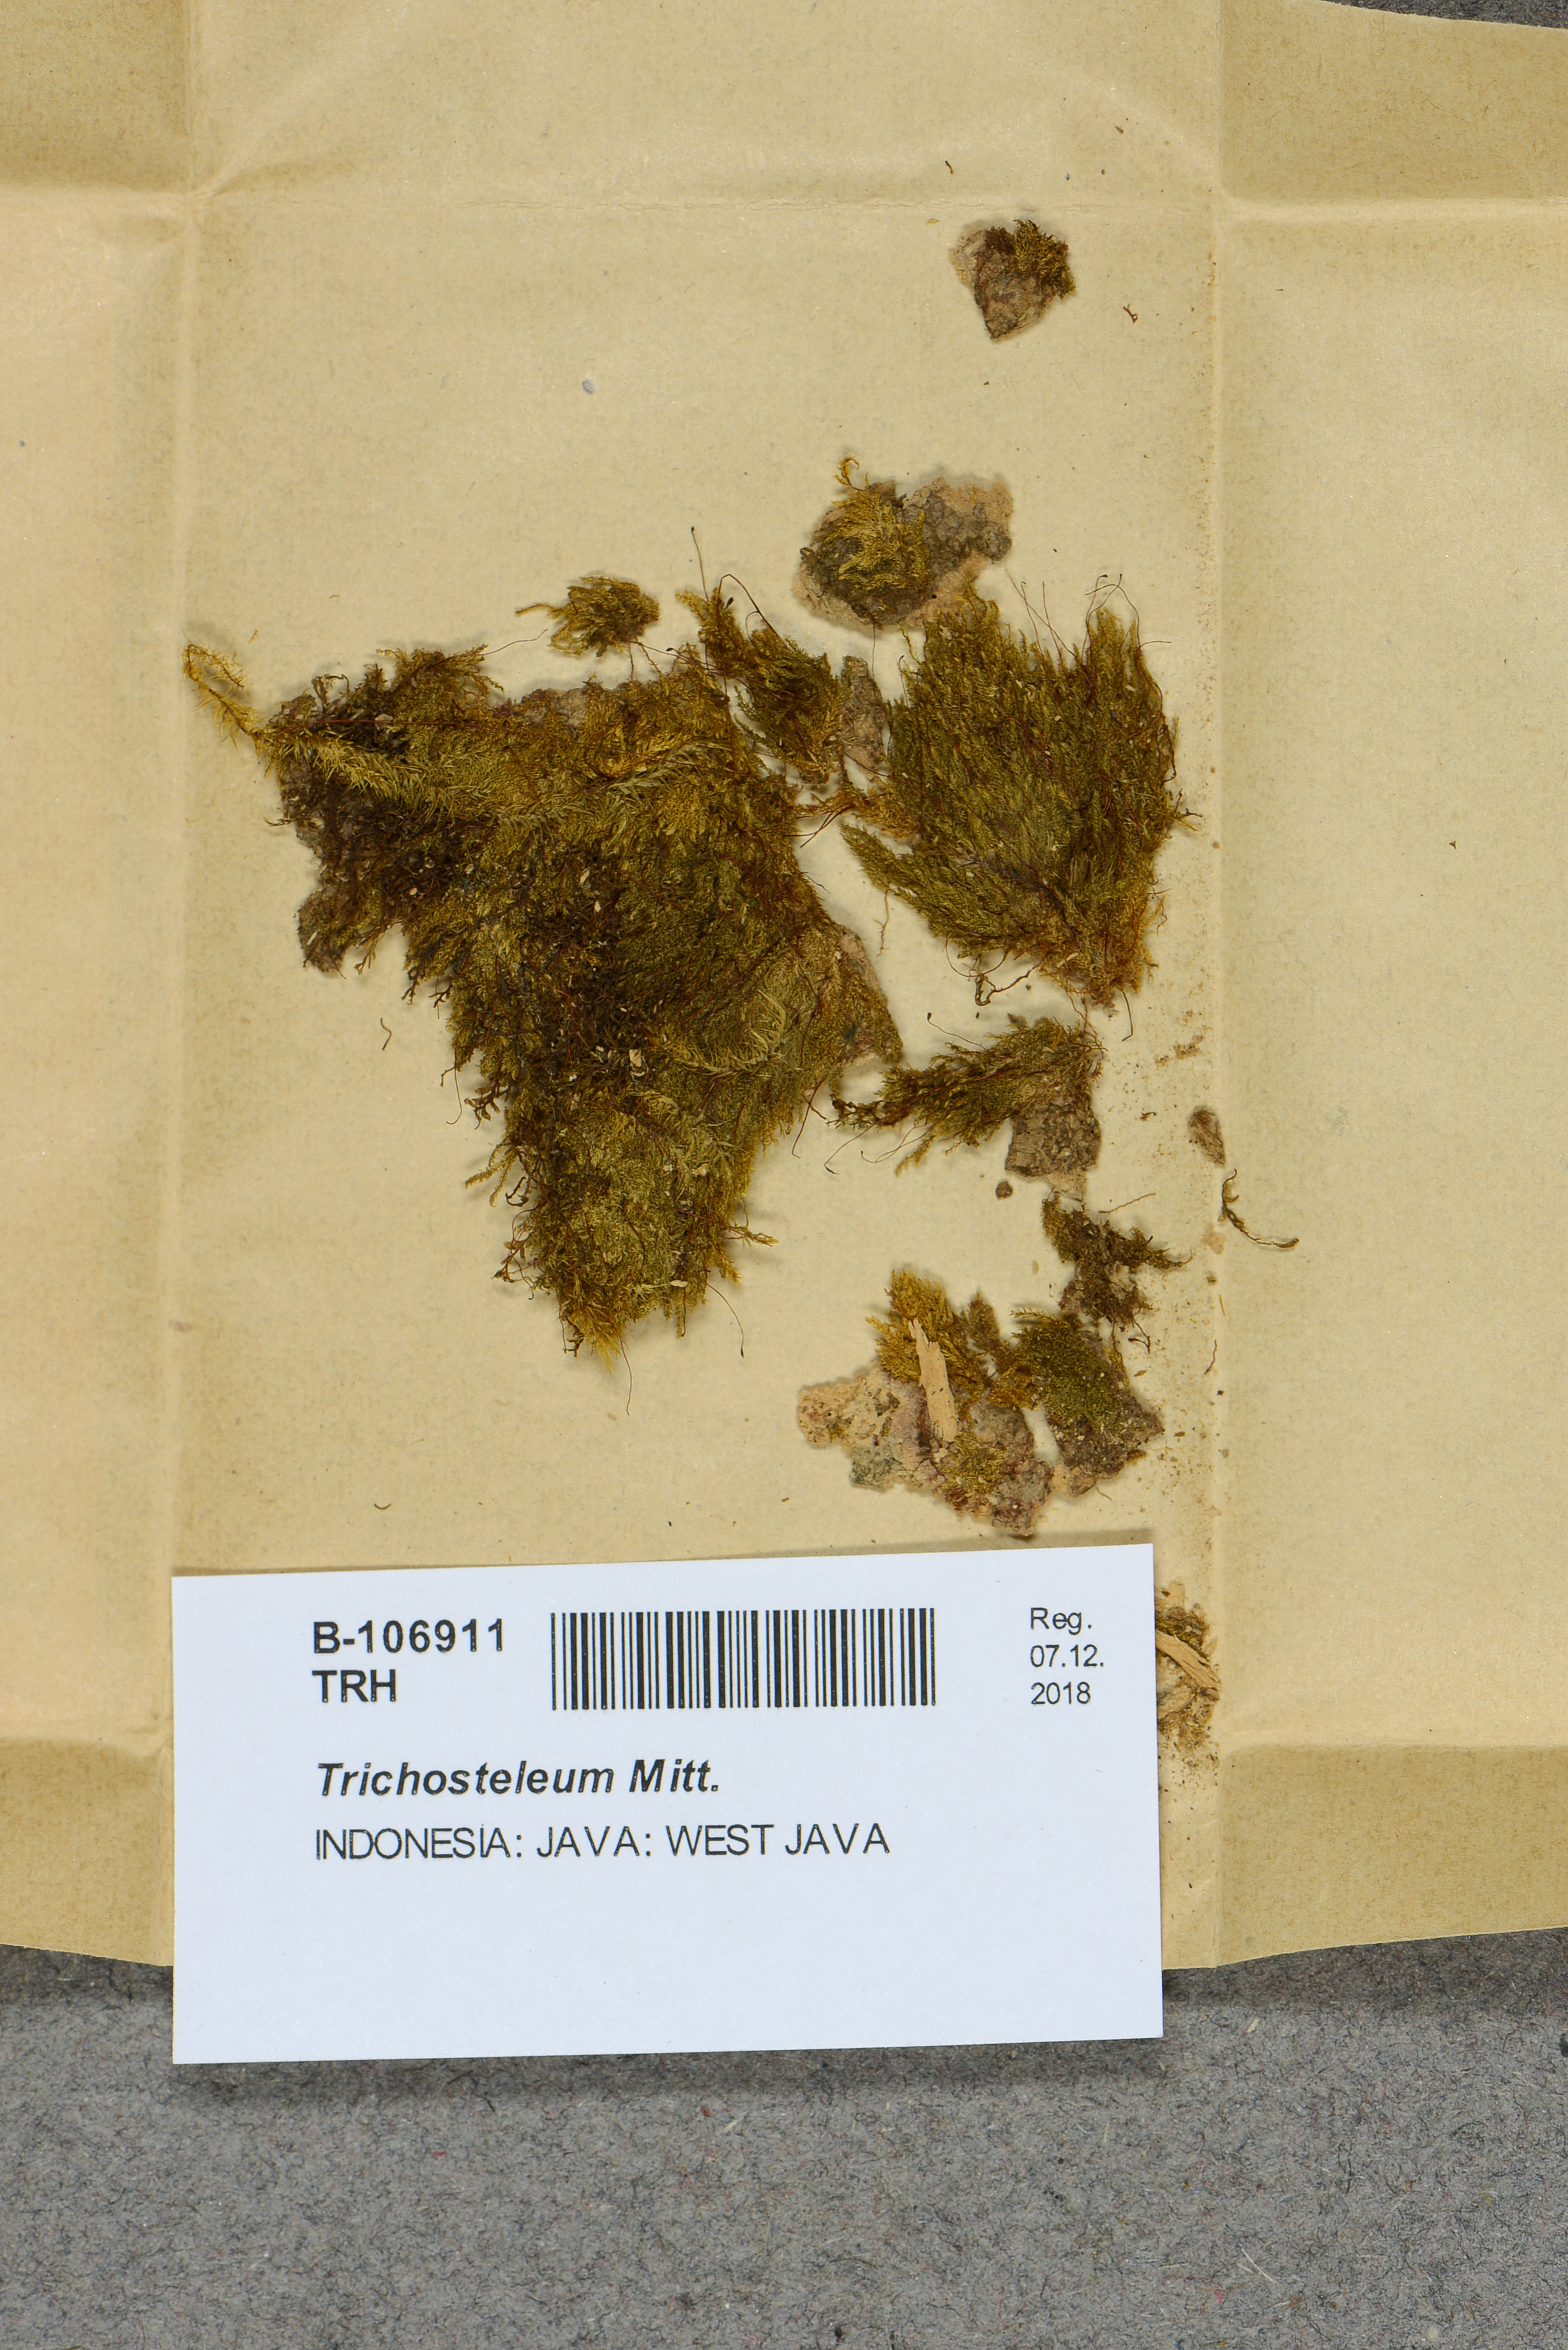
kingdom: Plantae
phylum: Bryophyta
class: Bryopsida
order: Hypnales
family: Sematophyllaceae
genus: Trichosteleum
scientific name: Trichosteleum
